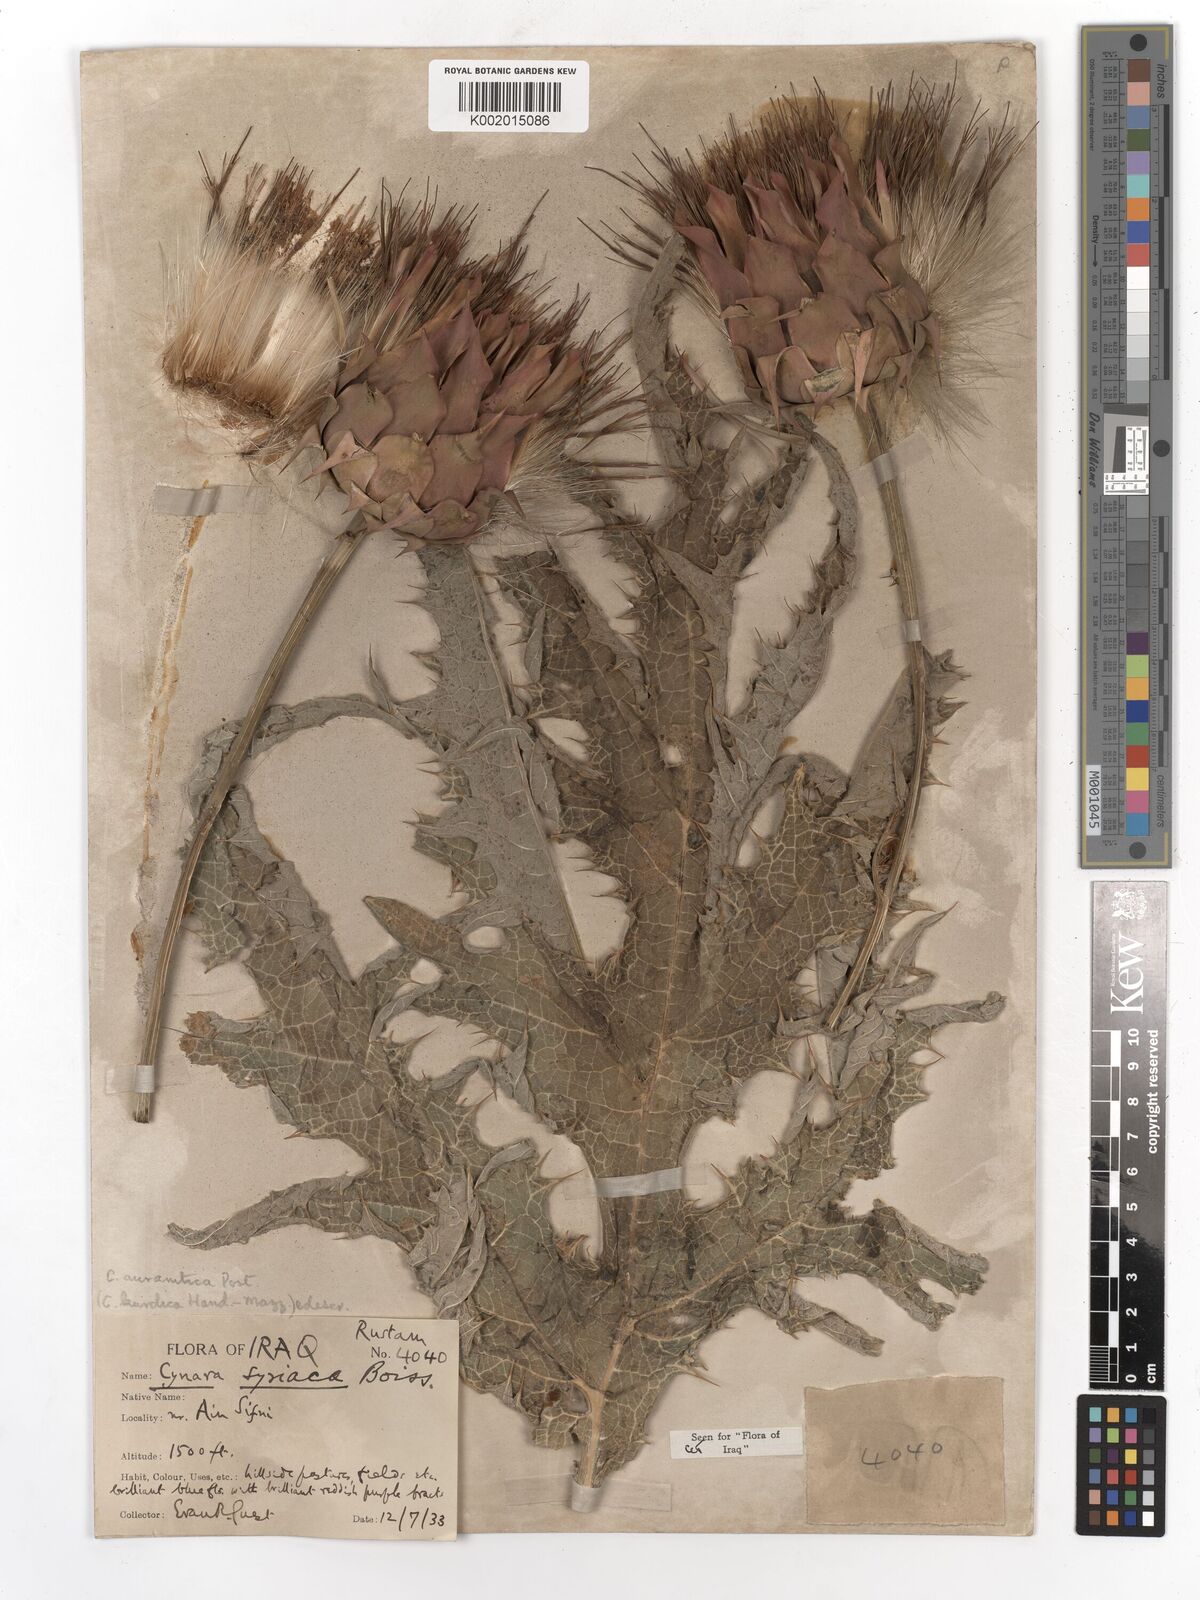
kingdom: Plantae
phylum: Tracheophyta
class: Magnoliopsida
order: Asterales
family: Asteraceae
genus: Cynara
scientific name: Cynara syriaca
